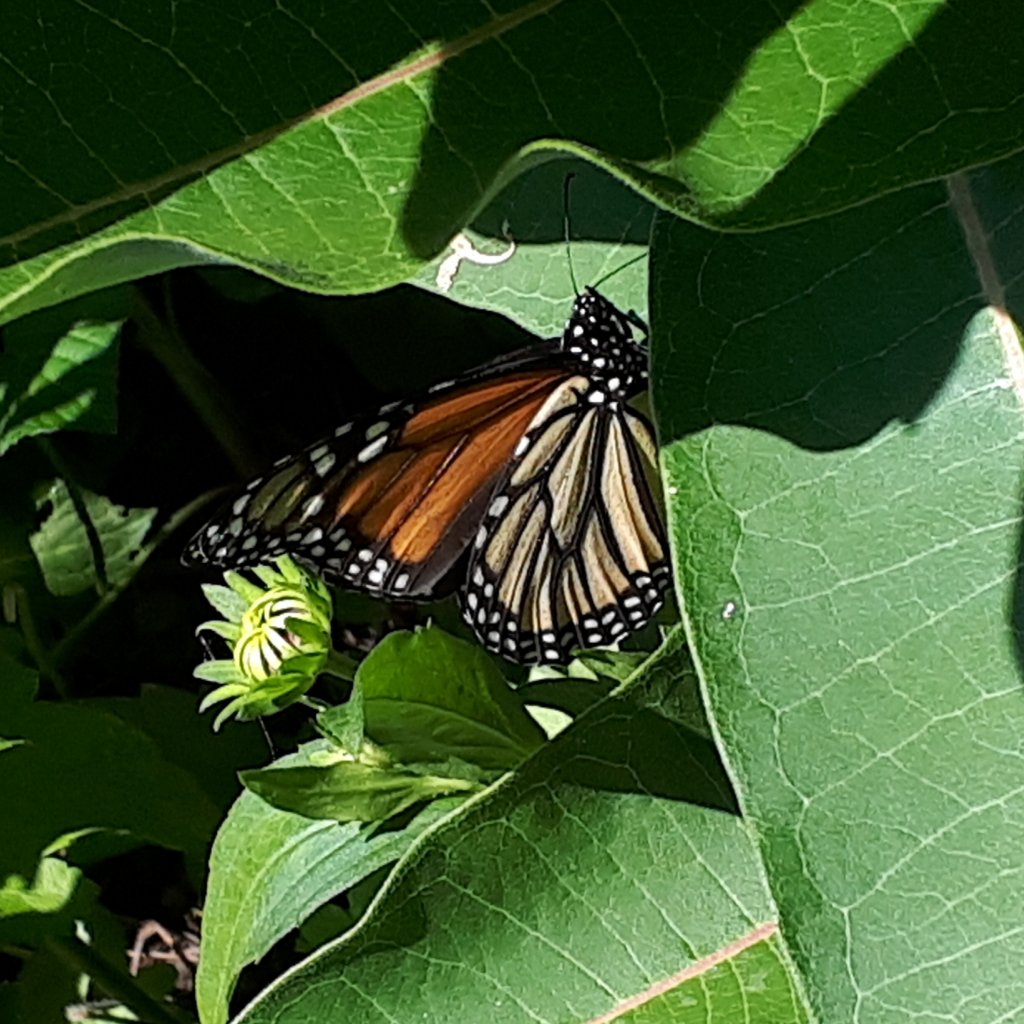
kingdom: Animalia
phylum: Arthropoda
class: Insecta
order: Lepidoptera
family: Nymphalidae
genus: Danaus
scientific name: Danaus plexippus
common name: Monarch
